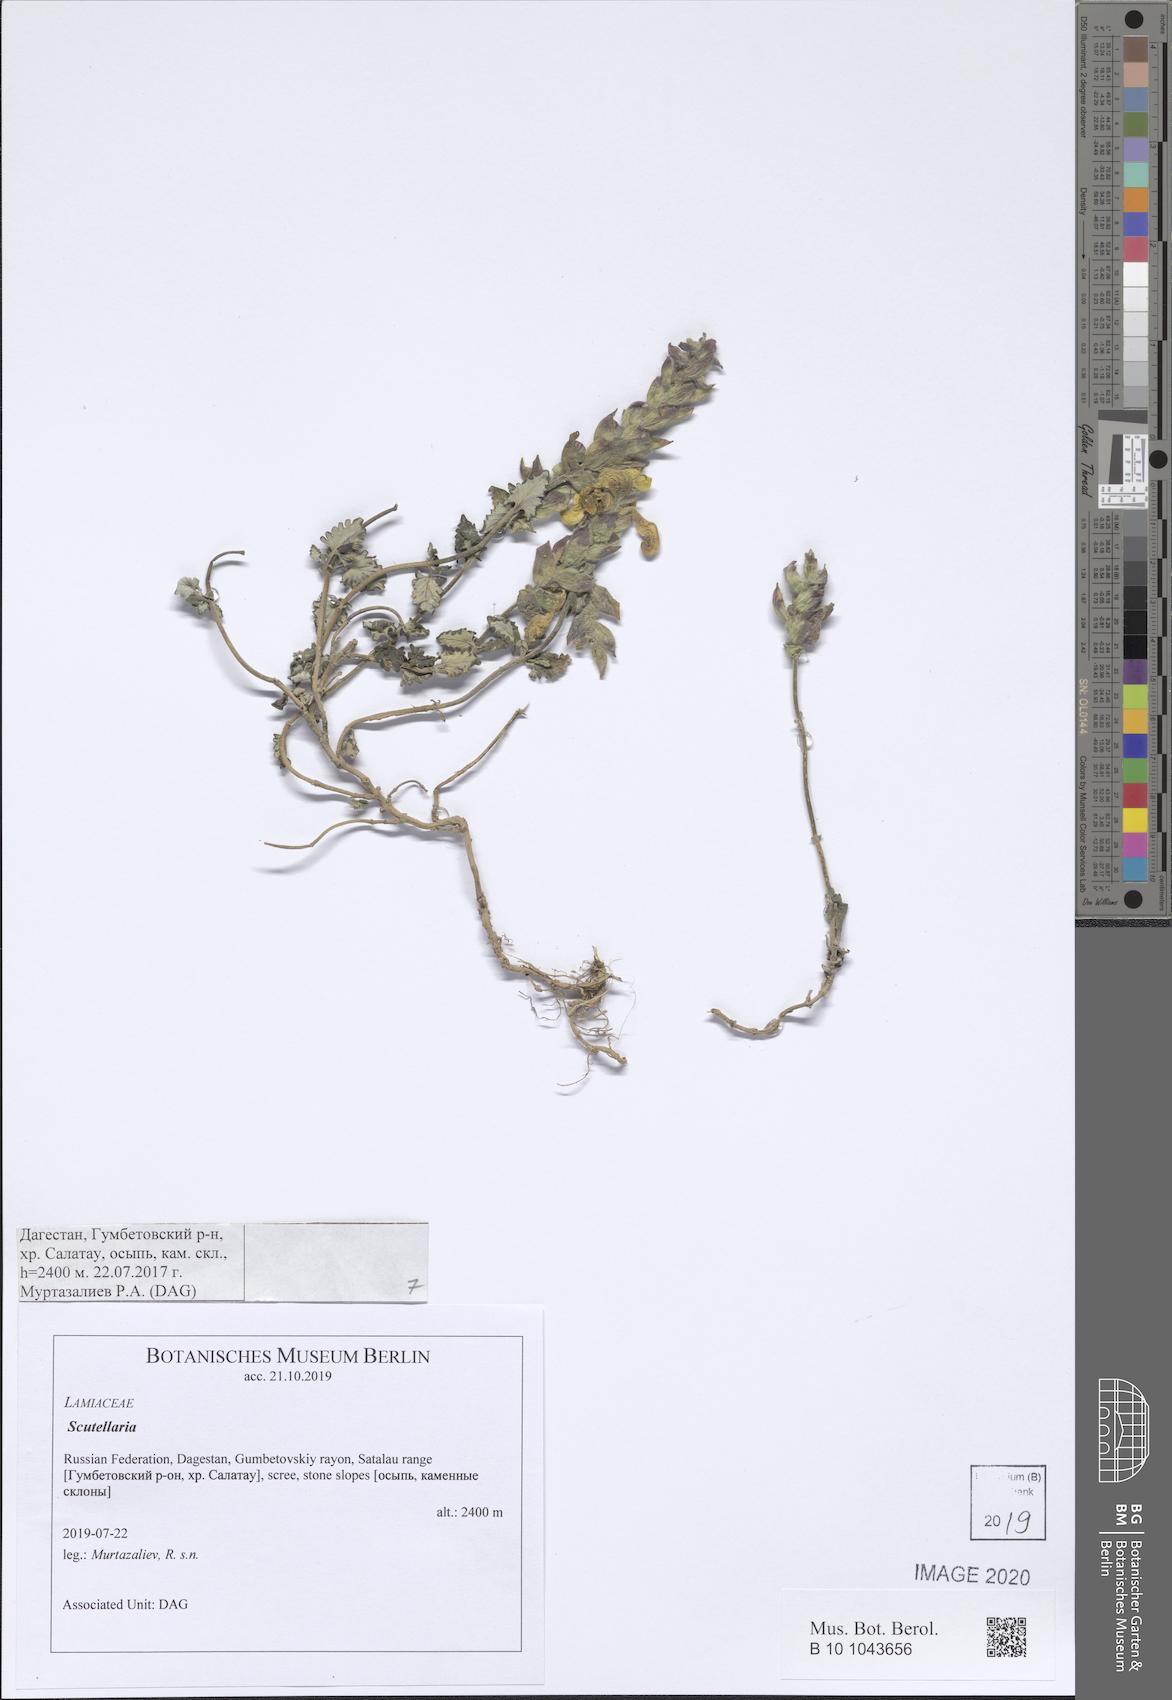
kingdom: Plantae
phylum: Tracheophyta
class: Magnoliopsida
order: Lamiales
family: Lamiaceae
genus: Scutellaria
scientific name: Scutellaria
